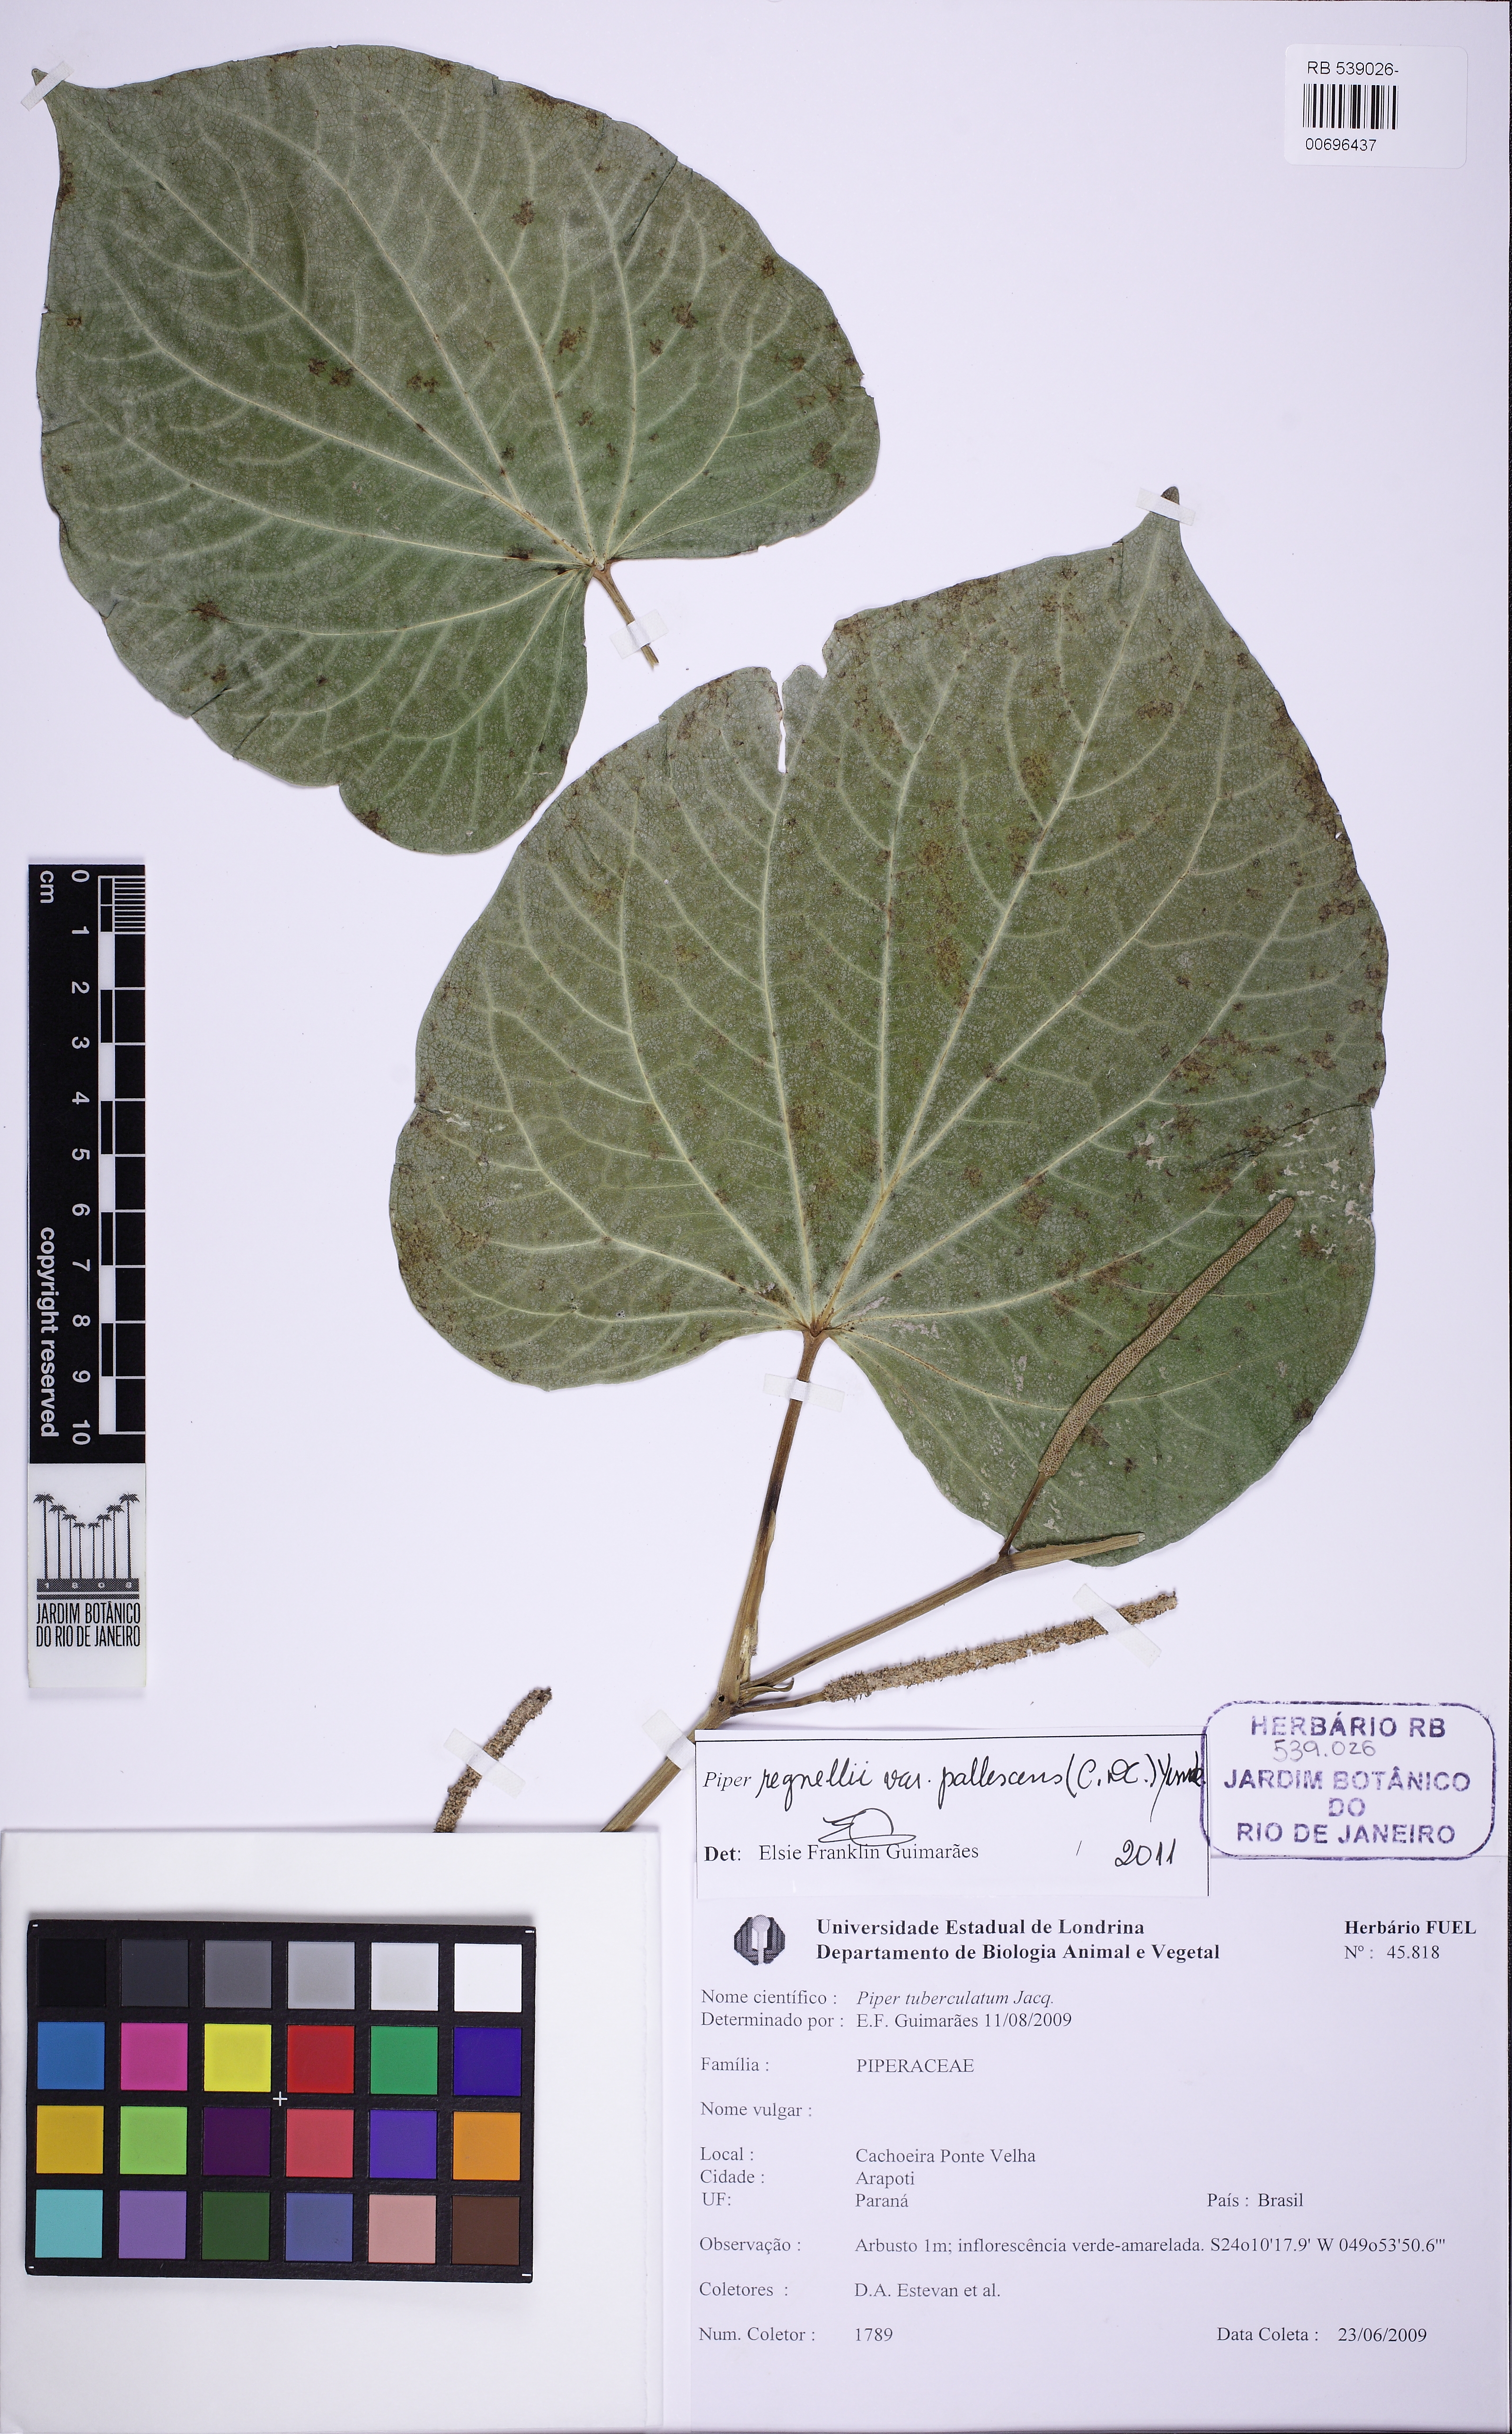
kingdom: Plantae
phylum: Tracheophyta
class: Magnoliopsida
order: Piperales
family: Piperaceae
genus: Piper
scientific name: Piper regnellii
